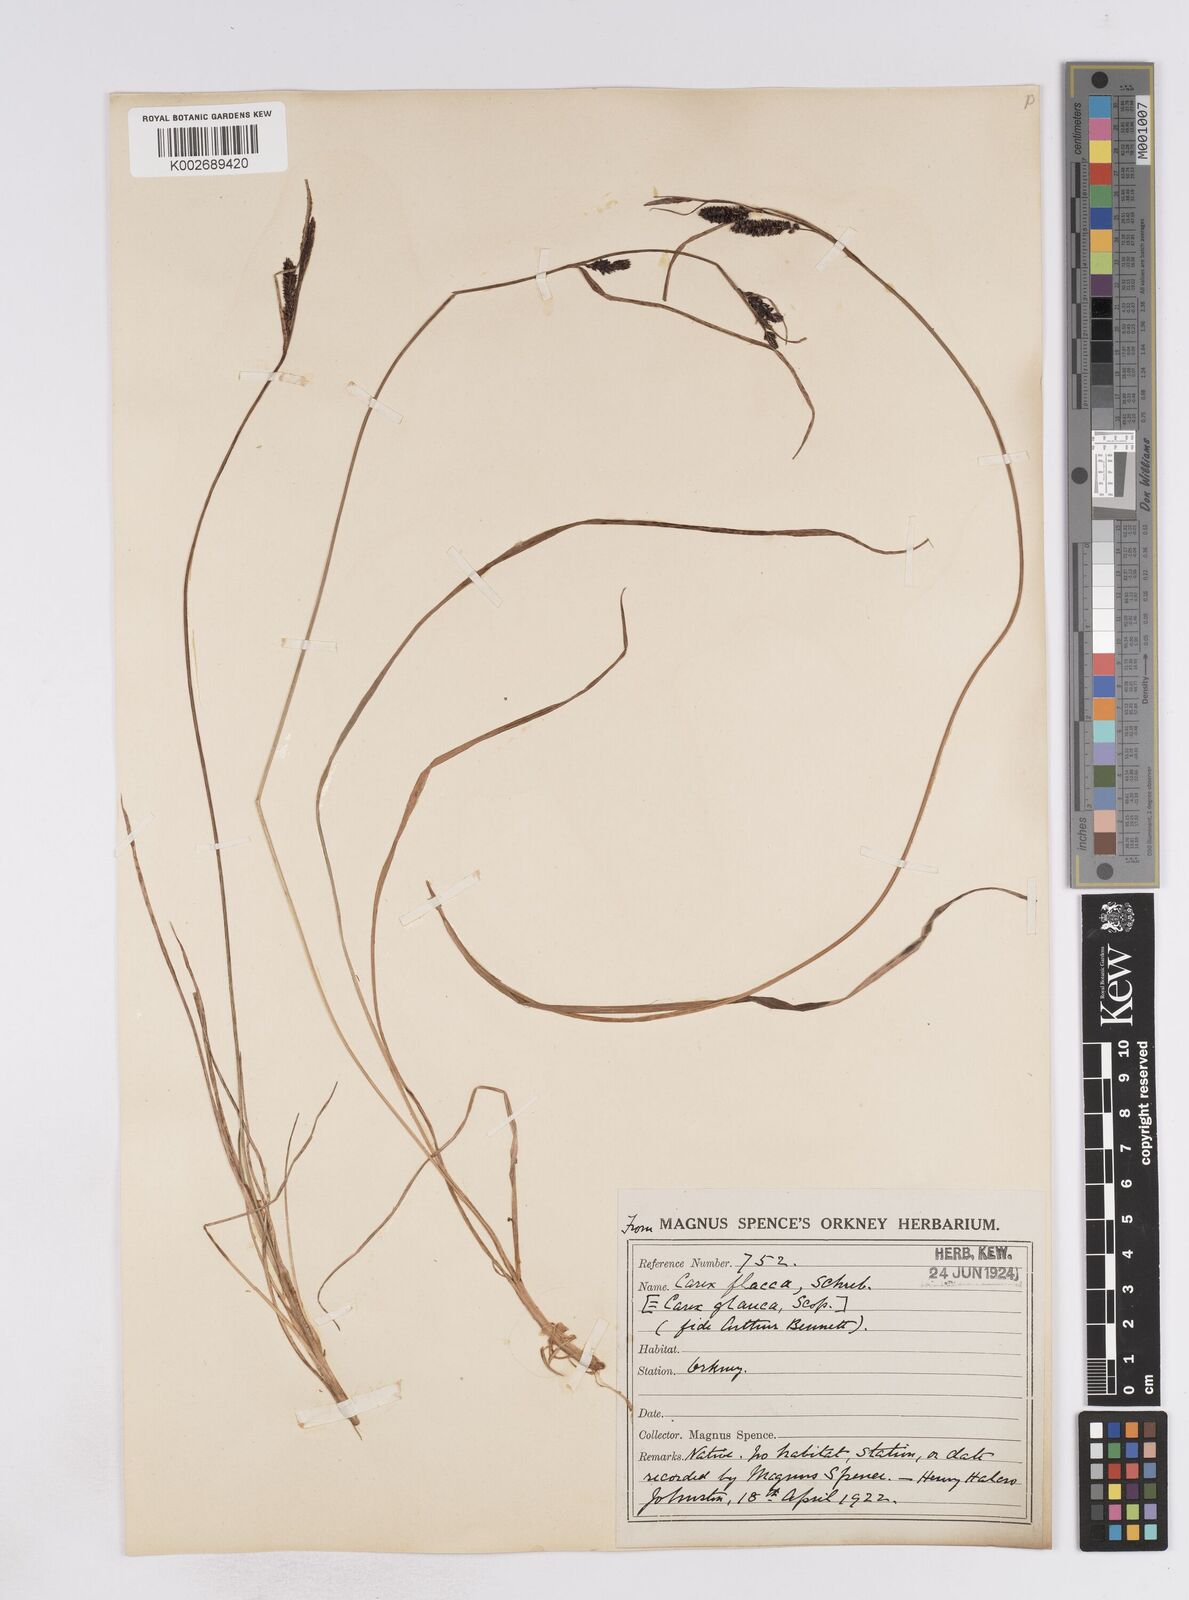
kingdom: Plantae
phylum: Tracheophyta
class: Liliopsida
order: Poales
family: Cyperaceae
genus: Carex
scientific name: Carex flacca
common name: Glaucous sedge
